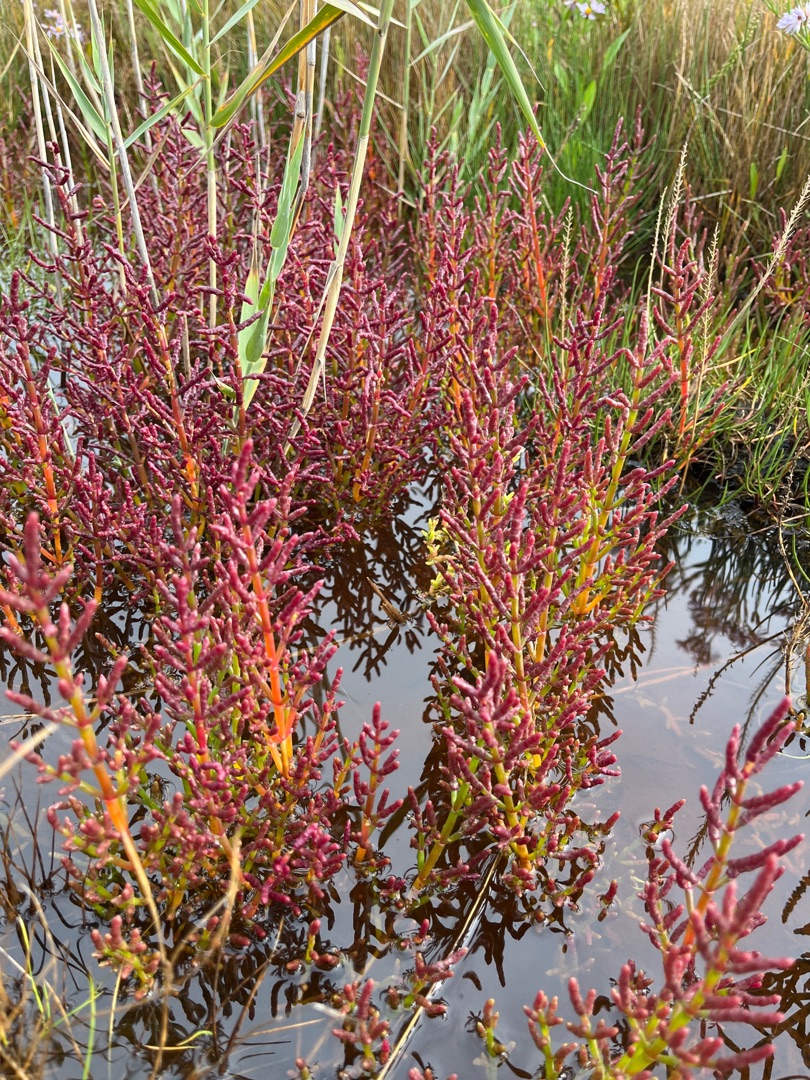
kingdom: Plantae
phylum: Tracheophyta
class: Magnoliopsida
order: Caryophyllales
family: Amaranthaceae
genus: Salicornia
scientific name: Salicornia europaea
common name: Almindelig salturt
